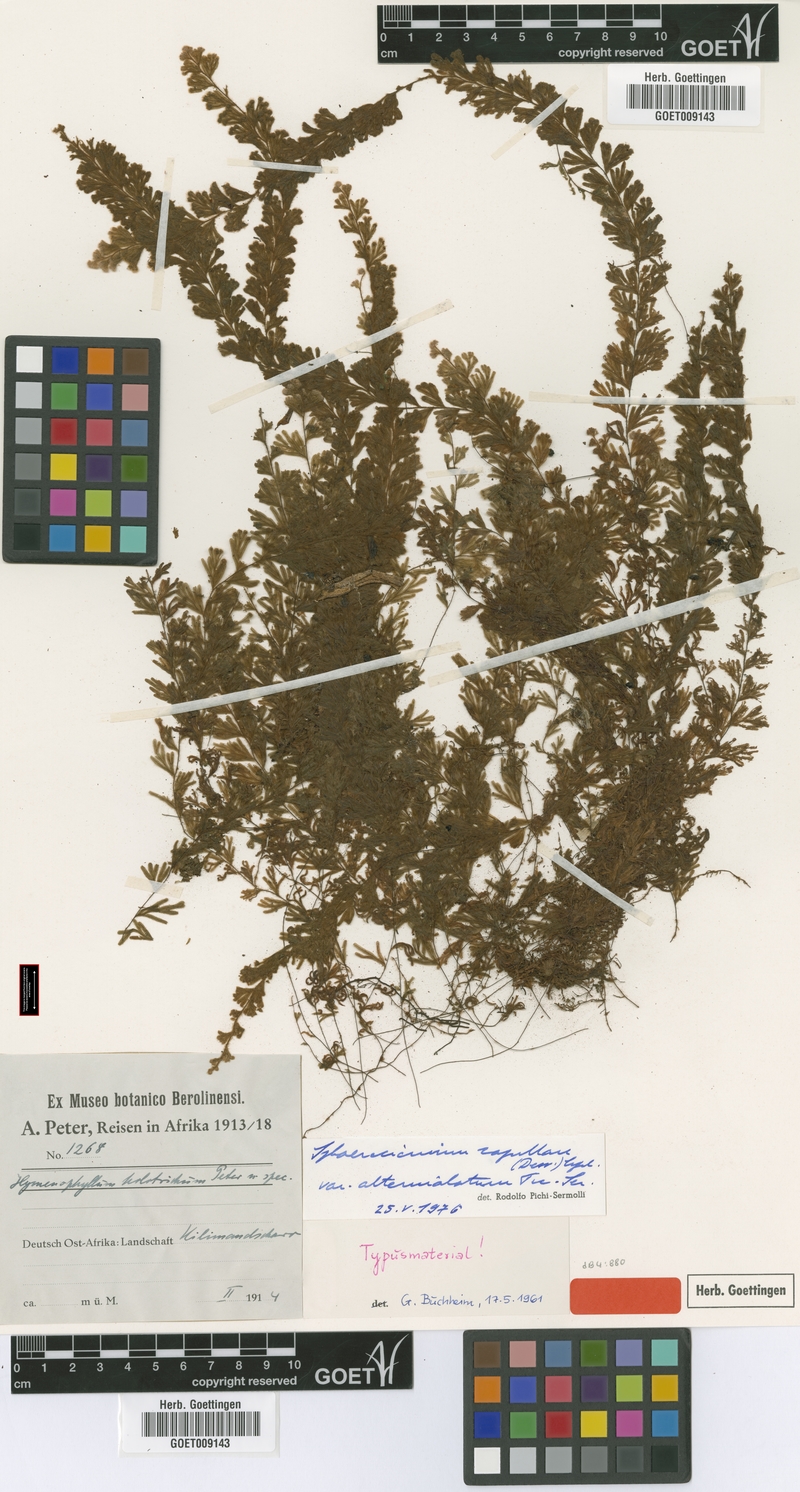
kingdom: Plantae
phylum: Tracheophyta
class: Polypodiopsida
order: Hymenophyllales
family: Hymenophyllaceae
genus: Hymenophyllum
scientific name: Hymenophyllum capillare
